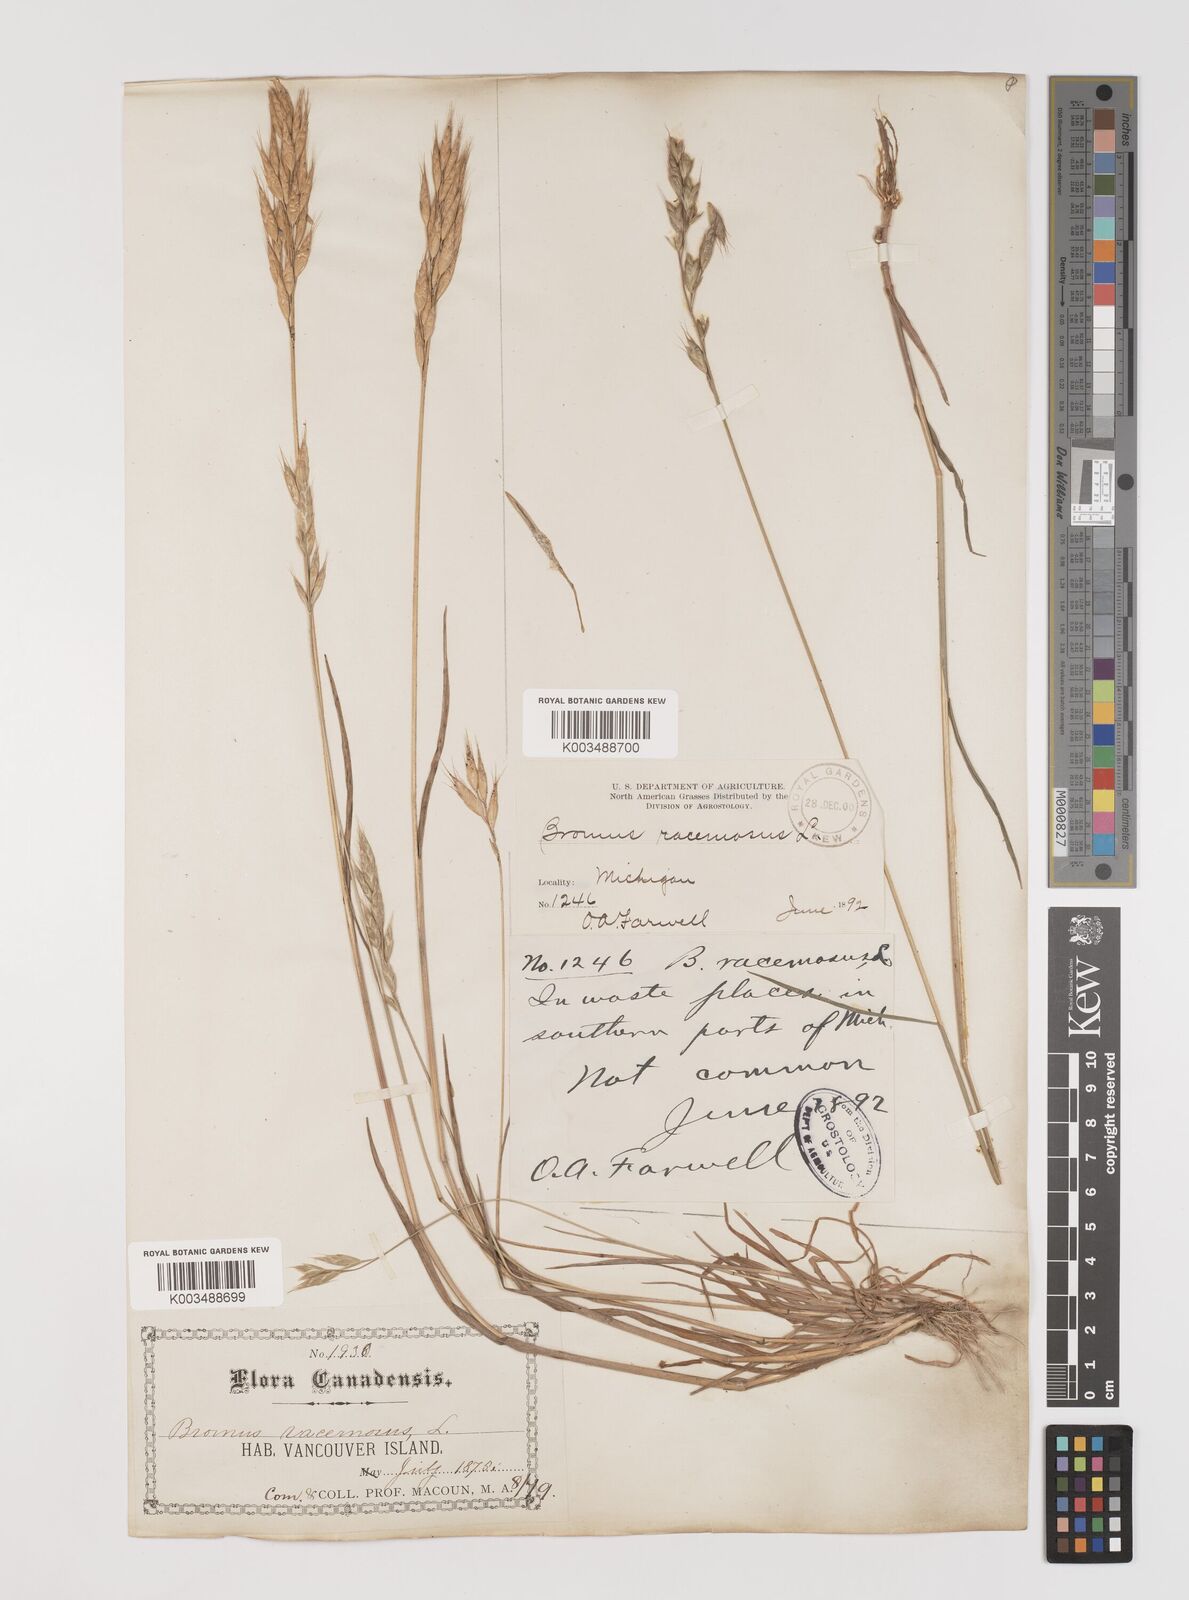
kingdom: Plantae
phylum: Tracheophyta
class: Liliopsida
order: Poales
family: Poaceae
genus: Bromus
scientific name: Bromus racemosus
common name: Bald brome
